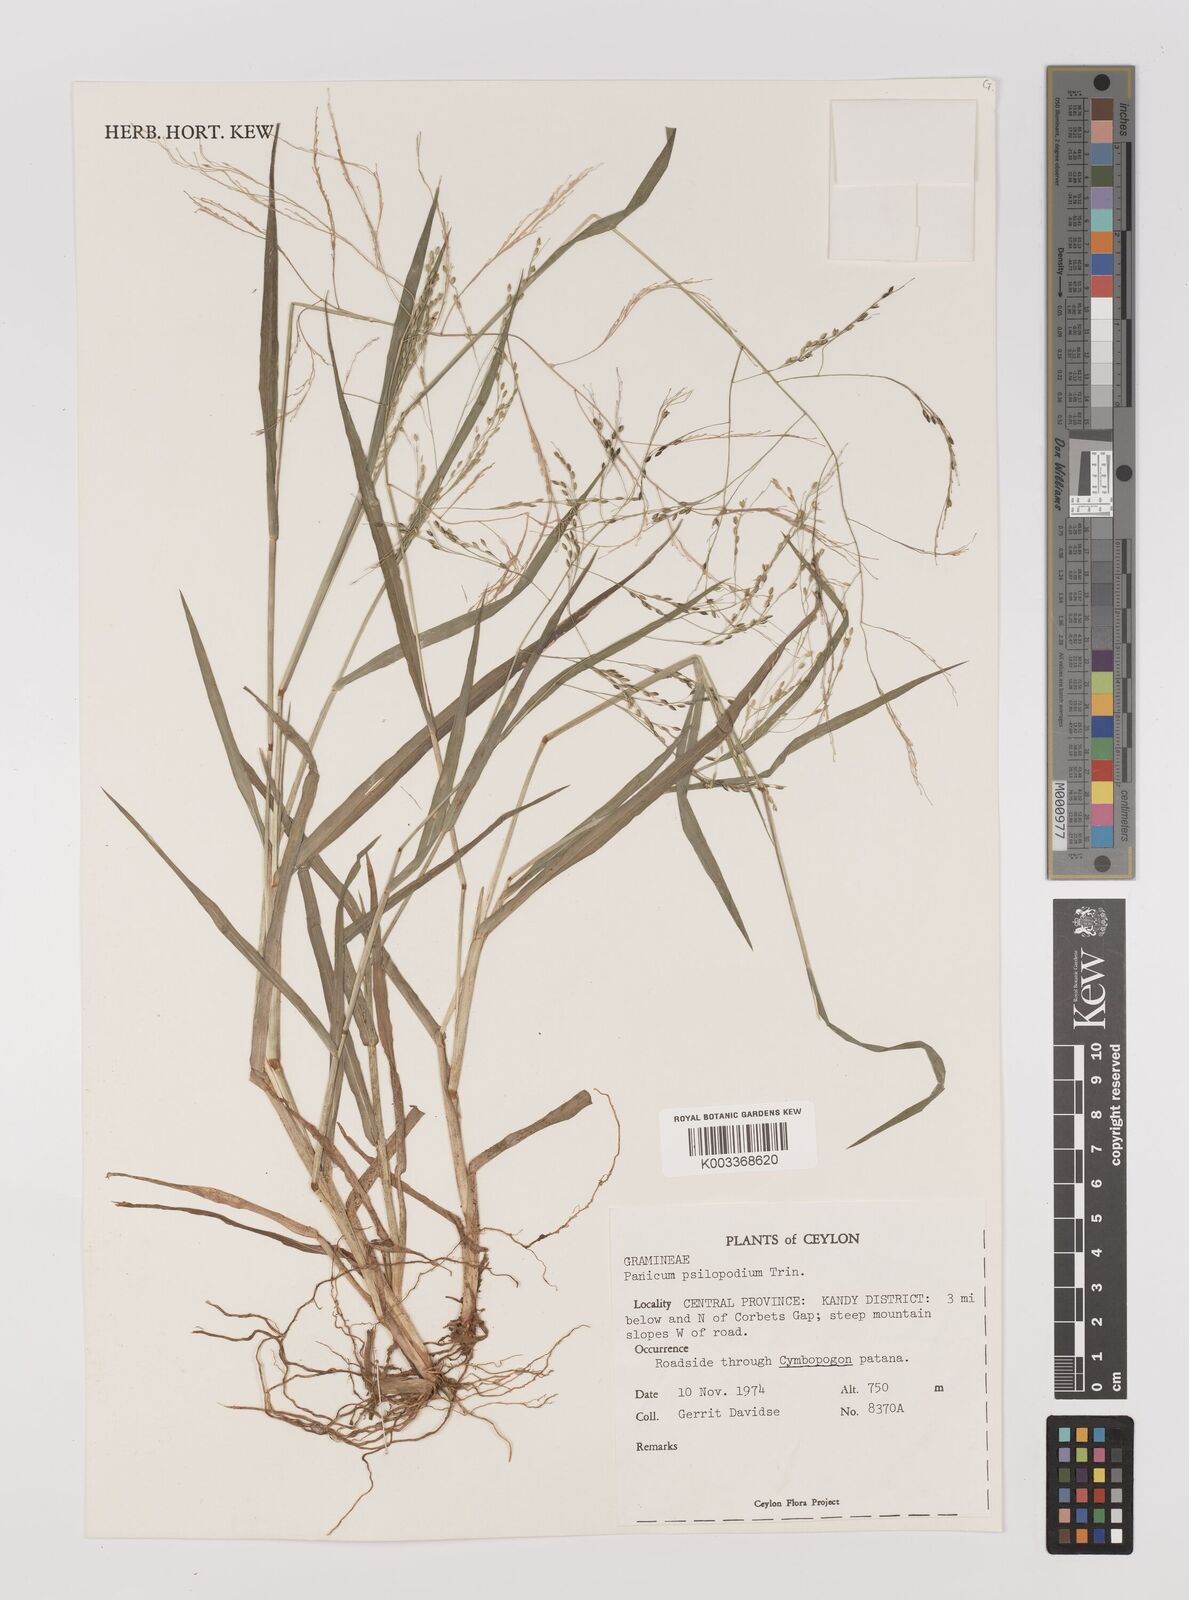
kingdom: Plantae
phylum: Tracheophyta
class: Liliopsida
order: Poales
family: Poaceae
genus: Panicum
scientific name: Panicum sumatrense
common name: Little millet
